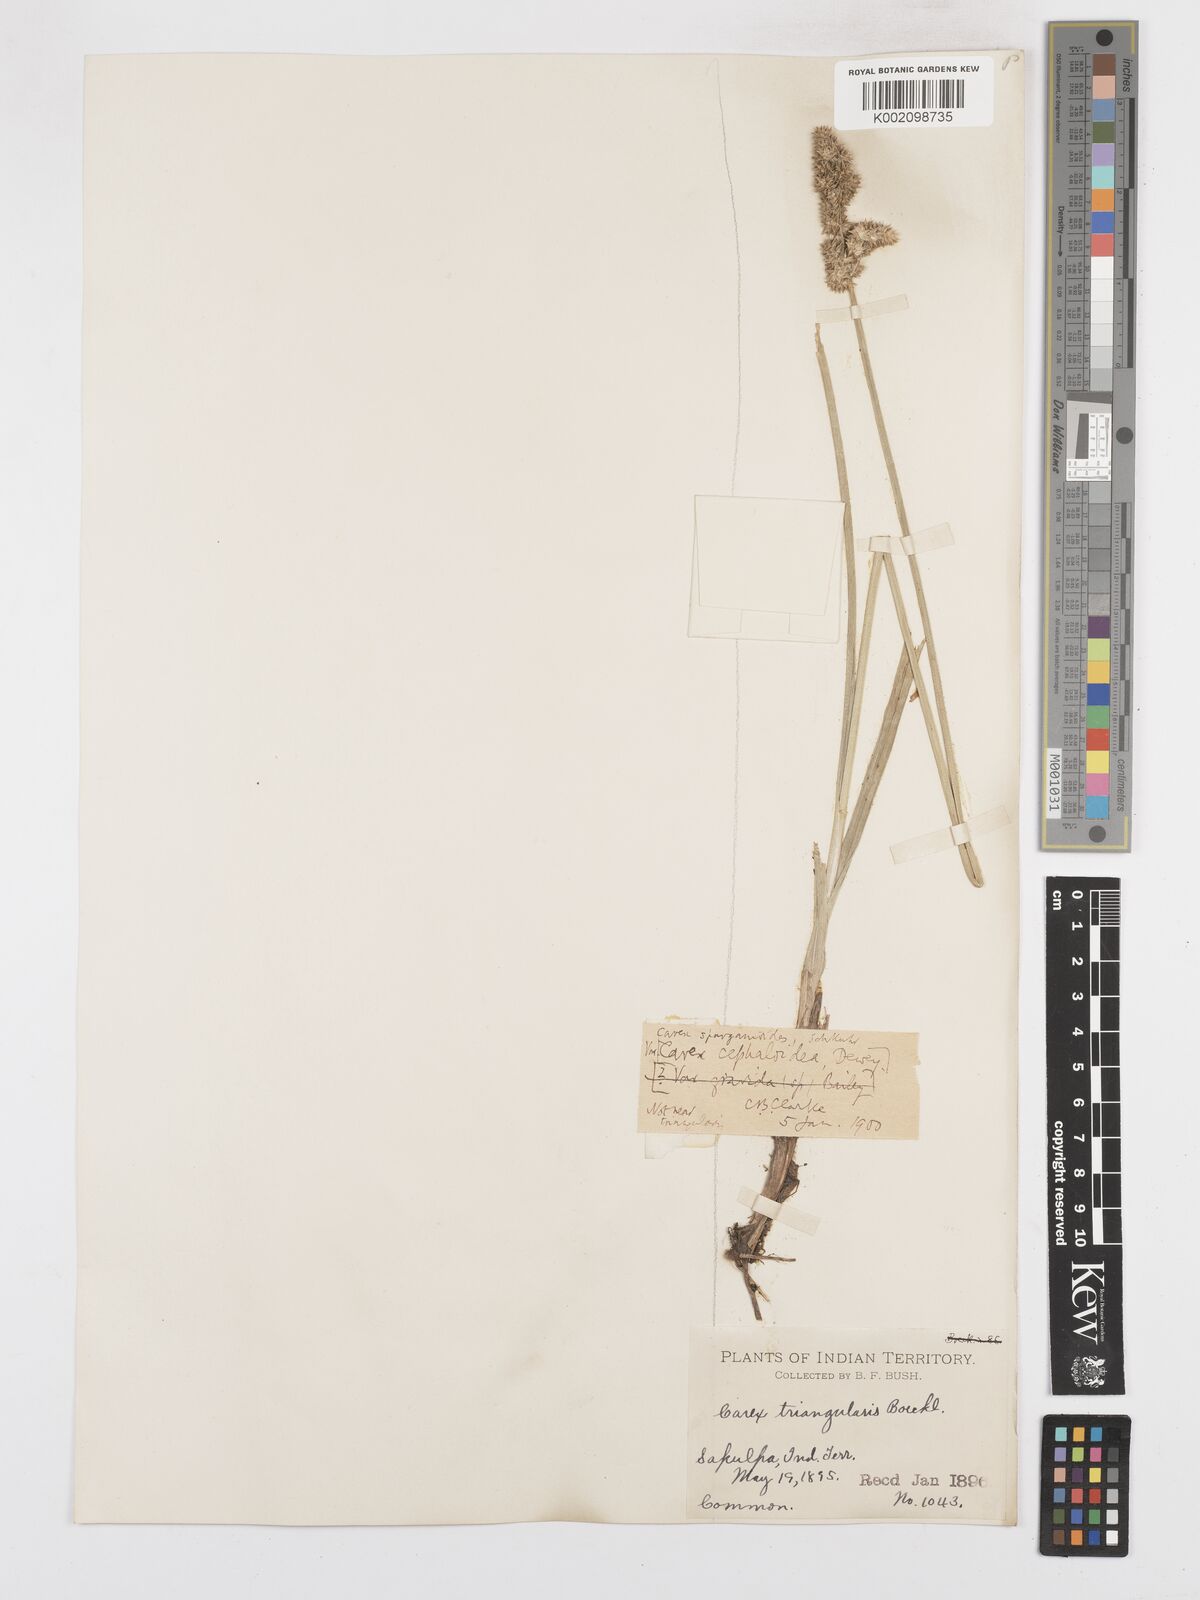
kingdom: Plantae
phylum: Tracheophyta
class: Liliopsida
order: Poales
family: Cyperaceae
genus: Carex
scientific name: Carex cephaloidea
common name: Thin-leaved sedge
